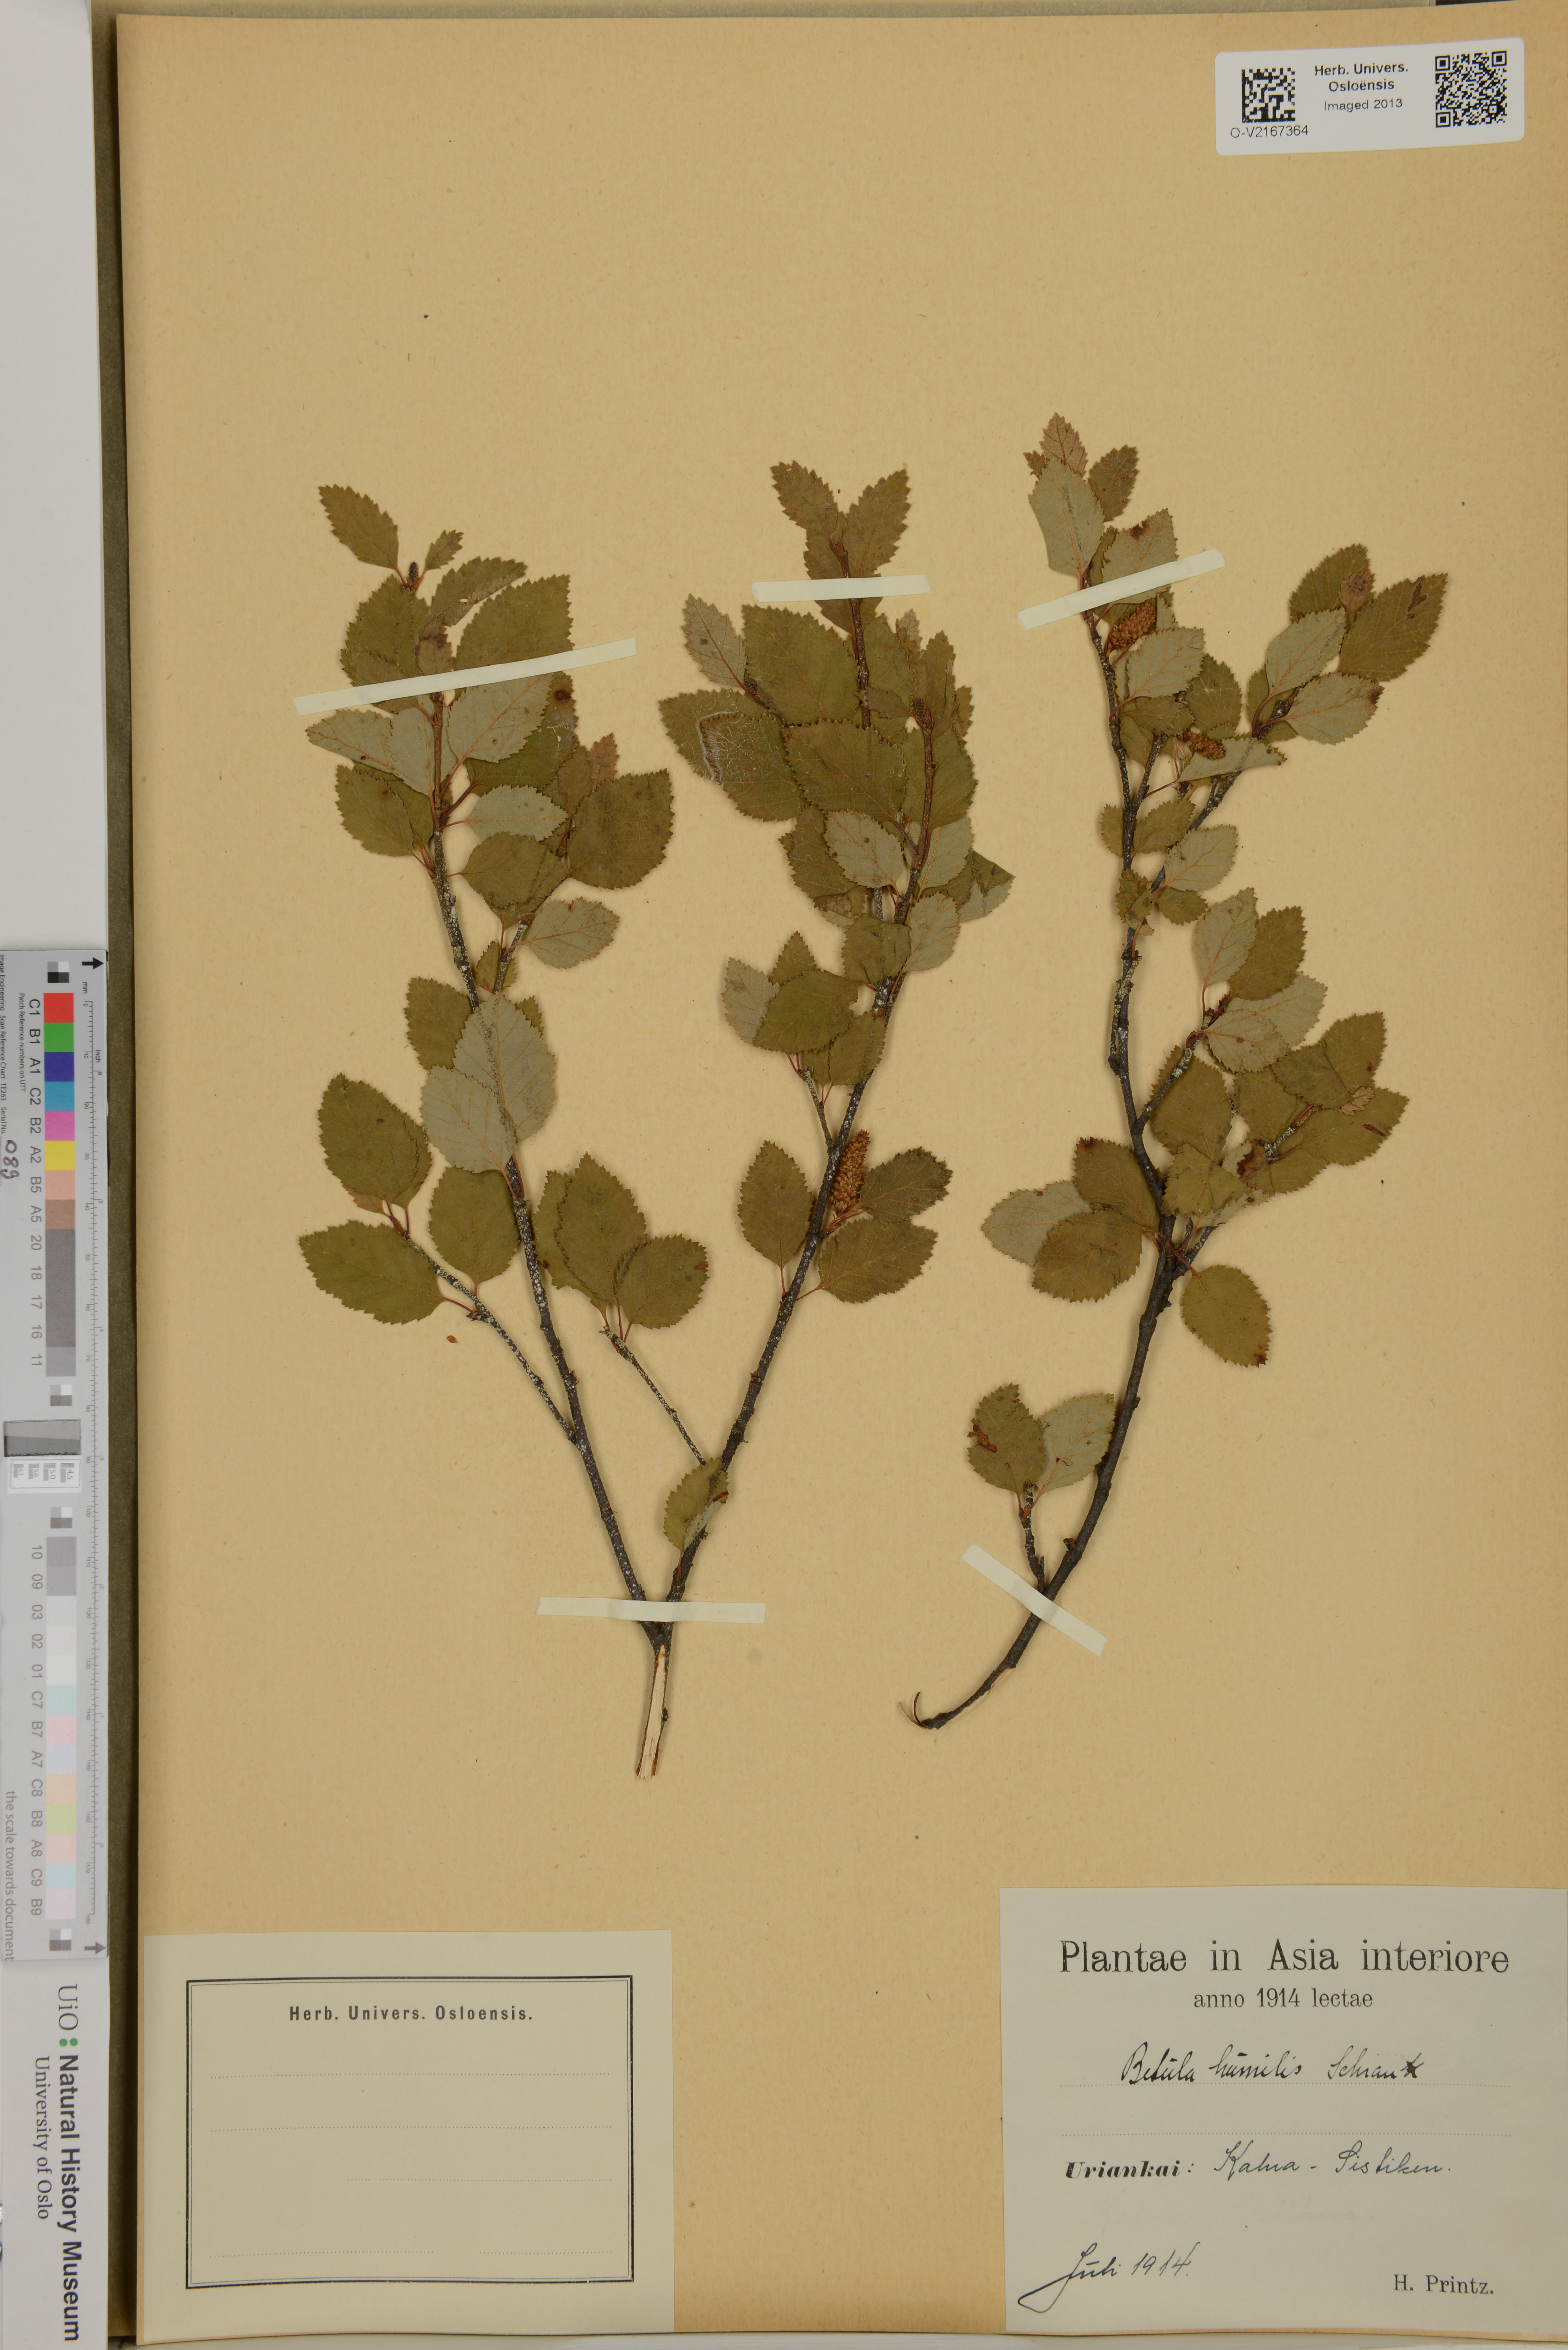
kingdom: Plantae
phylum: Tracheophyta
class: Magnoliopsida
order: Fagales
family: Betulaceae
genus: Betula
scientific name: Betula humilis
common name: Shrubby birch
